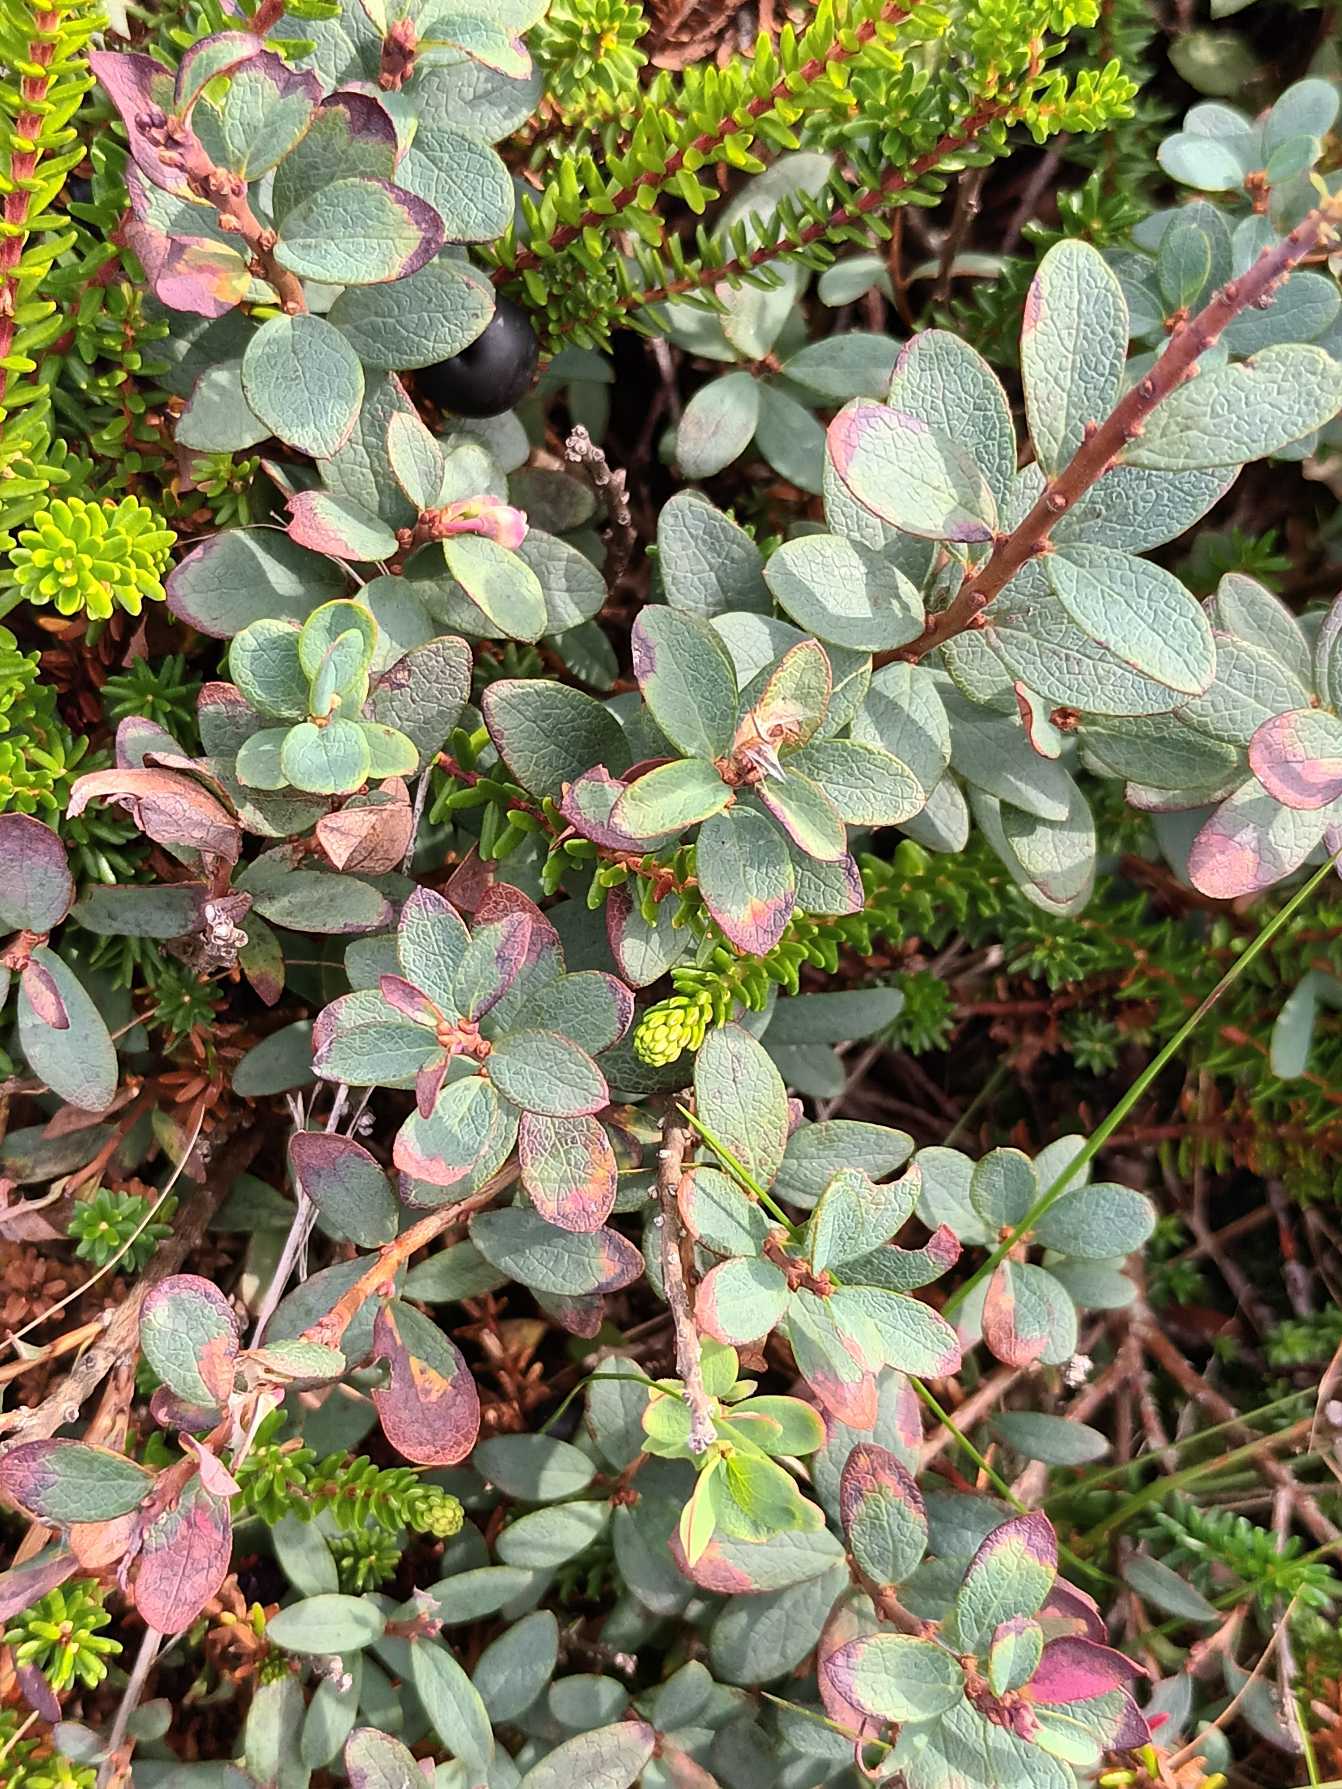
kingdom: Plantae
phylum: Tracheophyta
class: Magnoliopsida
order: Ericales
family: Ericaceae
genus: Vaccinium
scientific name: Vaccinium uliginosum
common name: Mose-bølle
